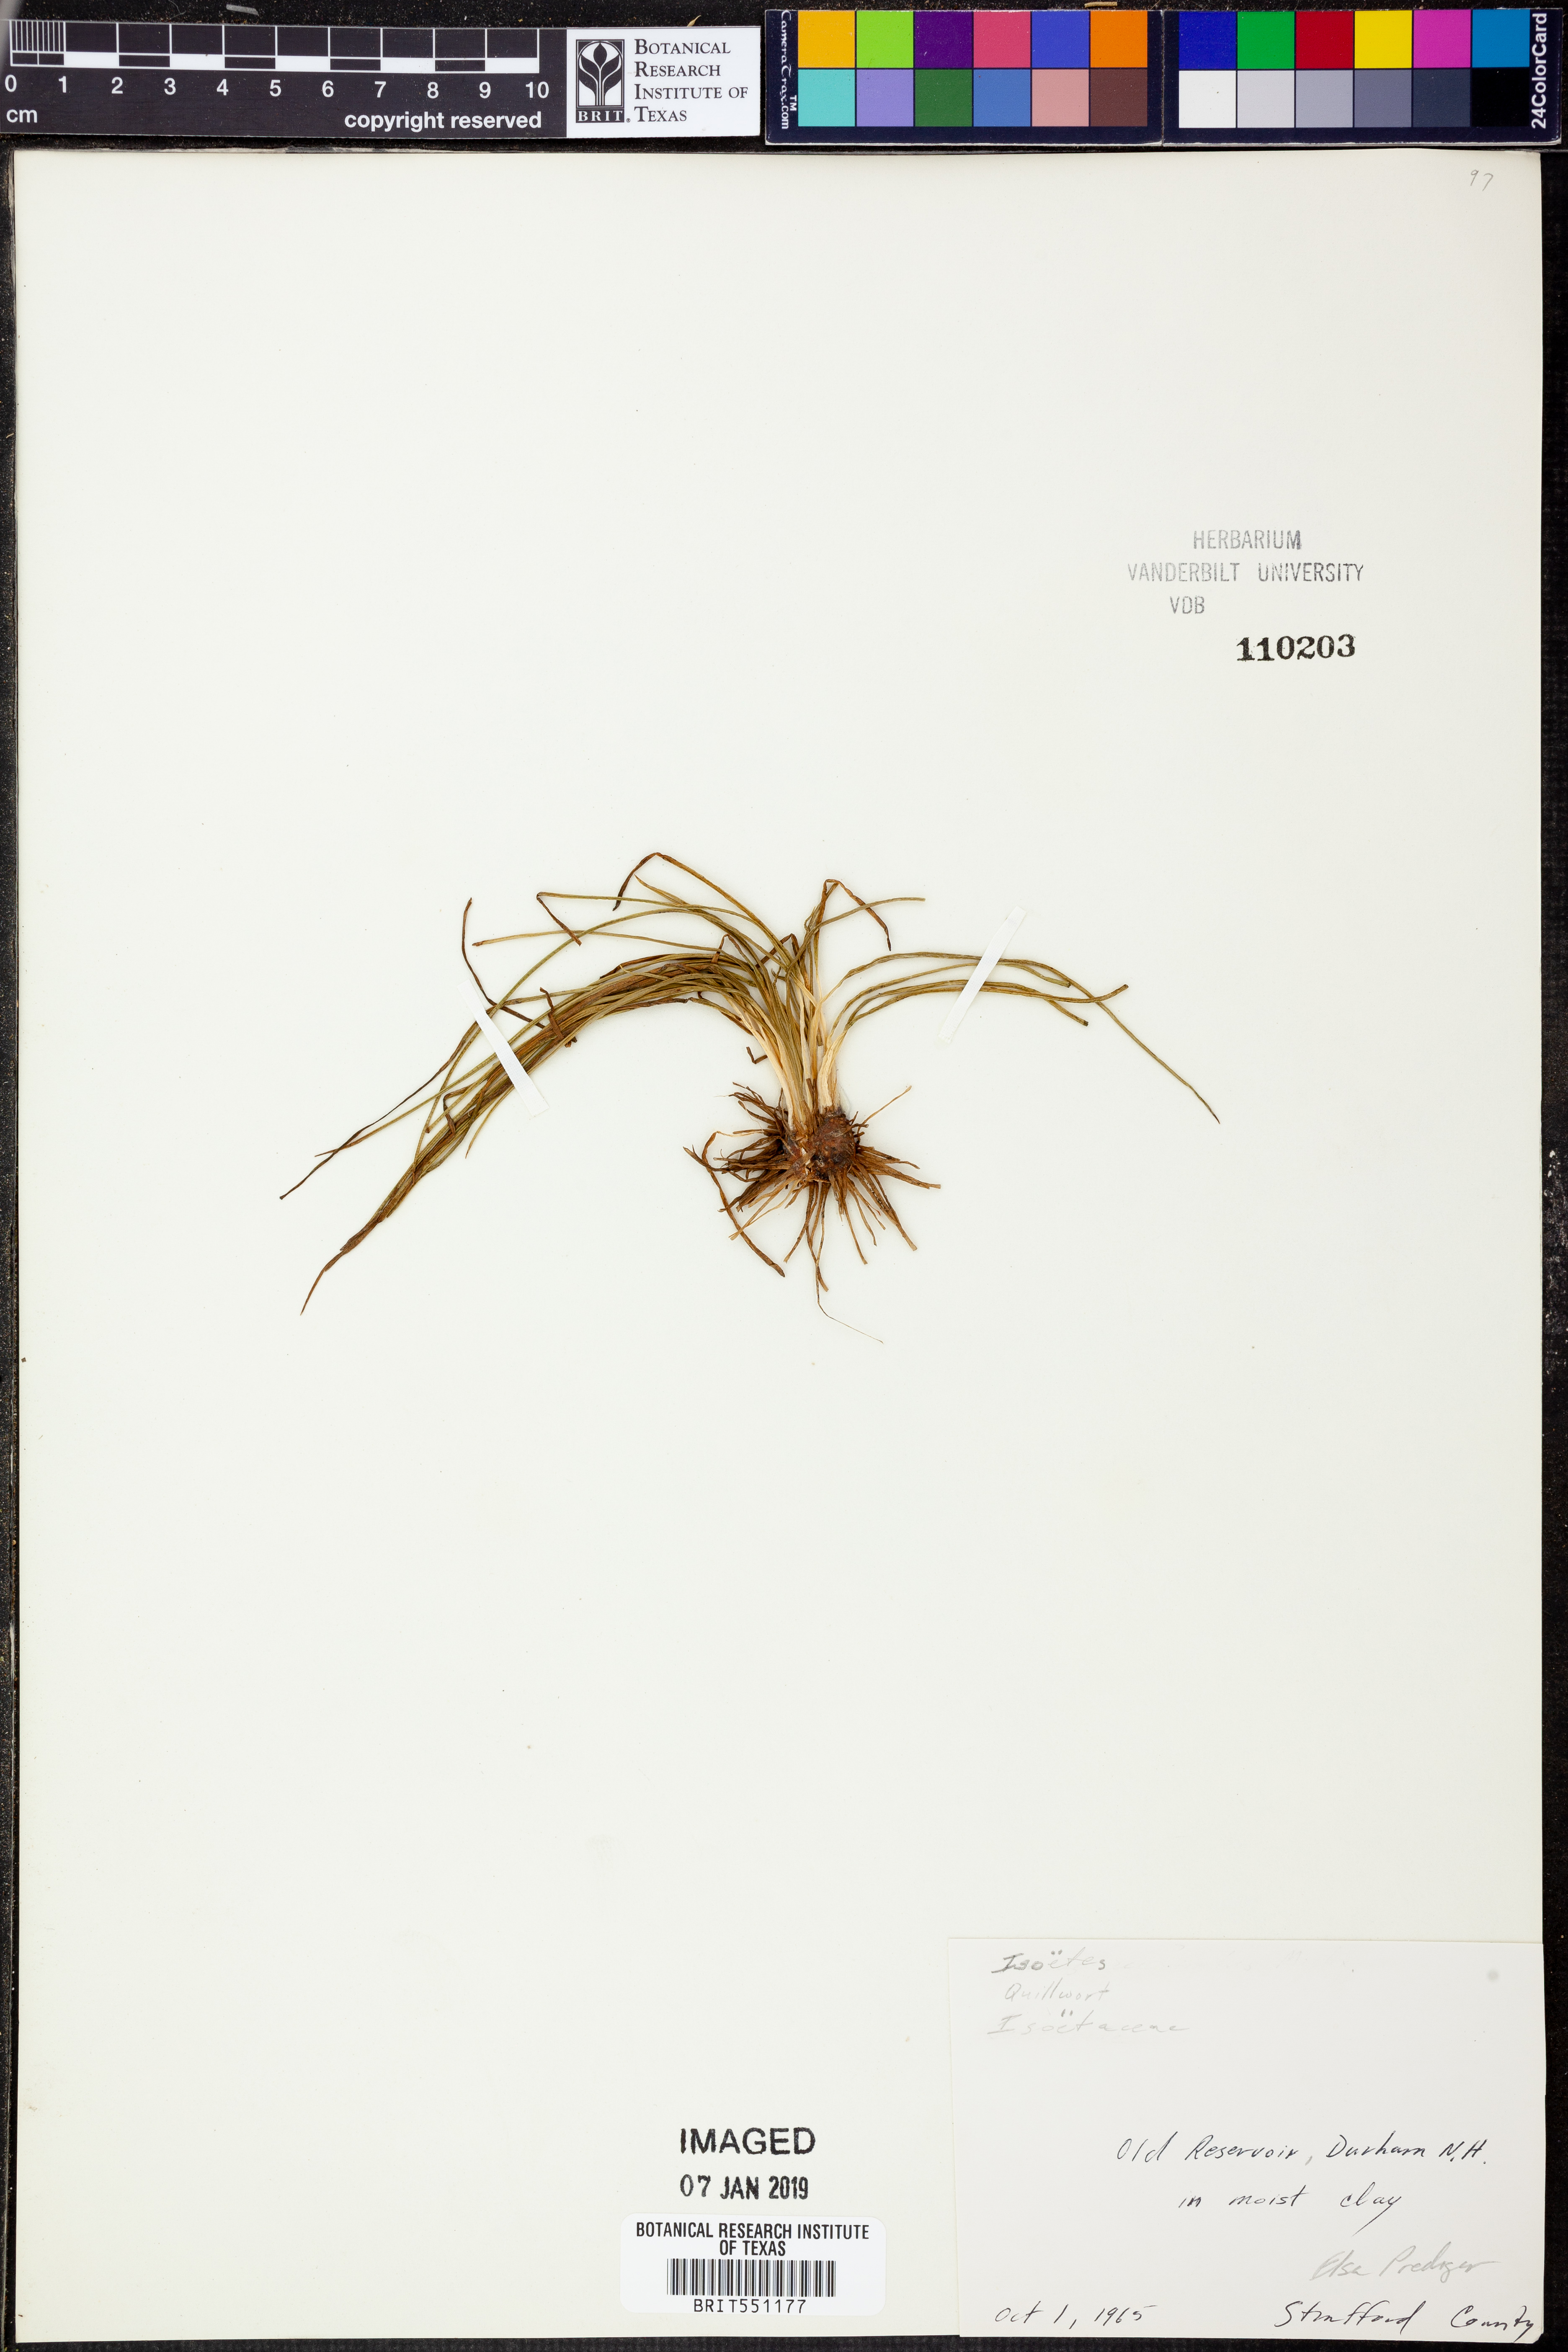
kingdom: Plantae
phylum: Tracheophyta
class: Lycopodiopsida
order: Isoetales
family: Isoetaceae
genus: Isoetes
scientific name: Isoetes
